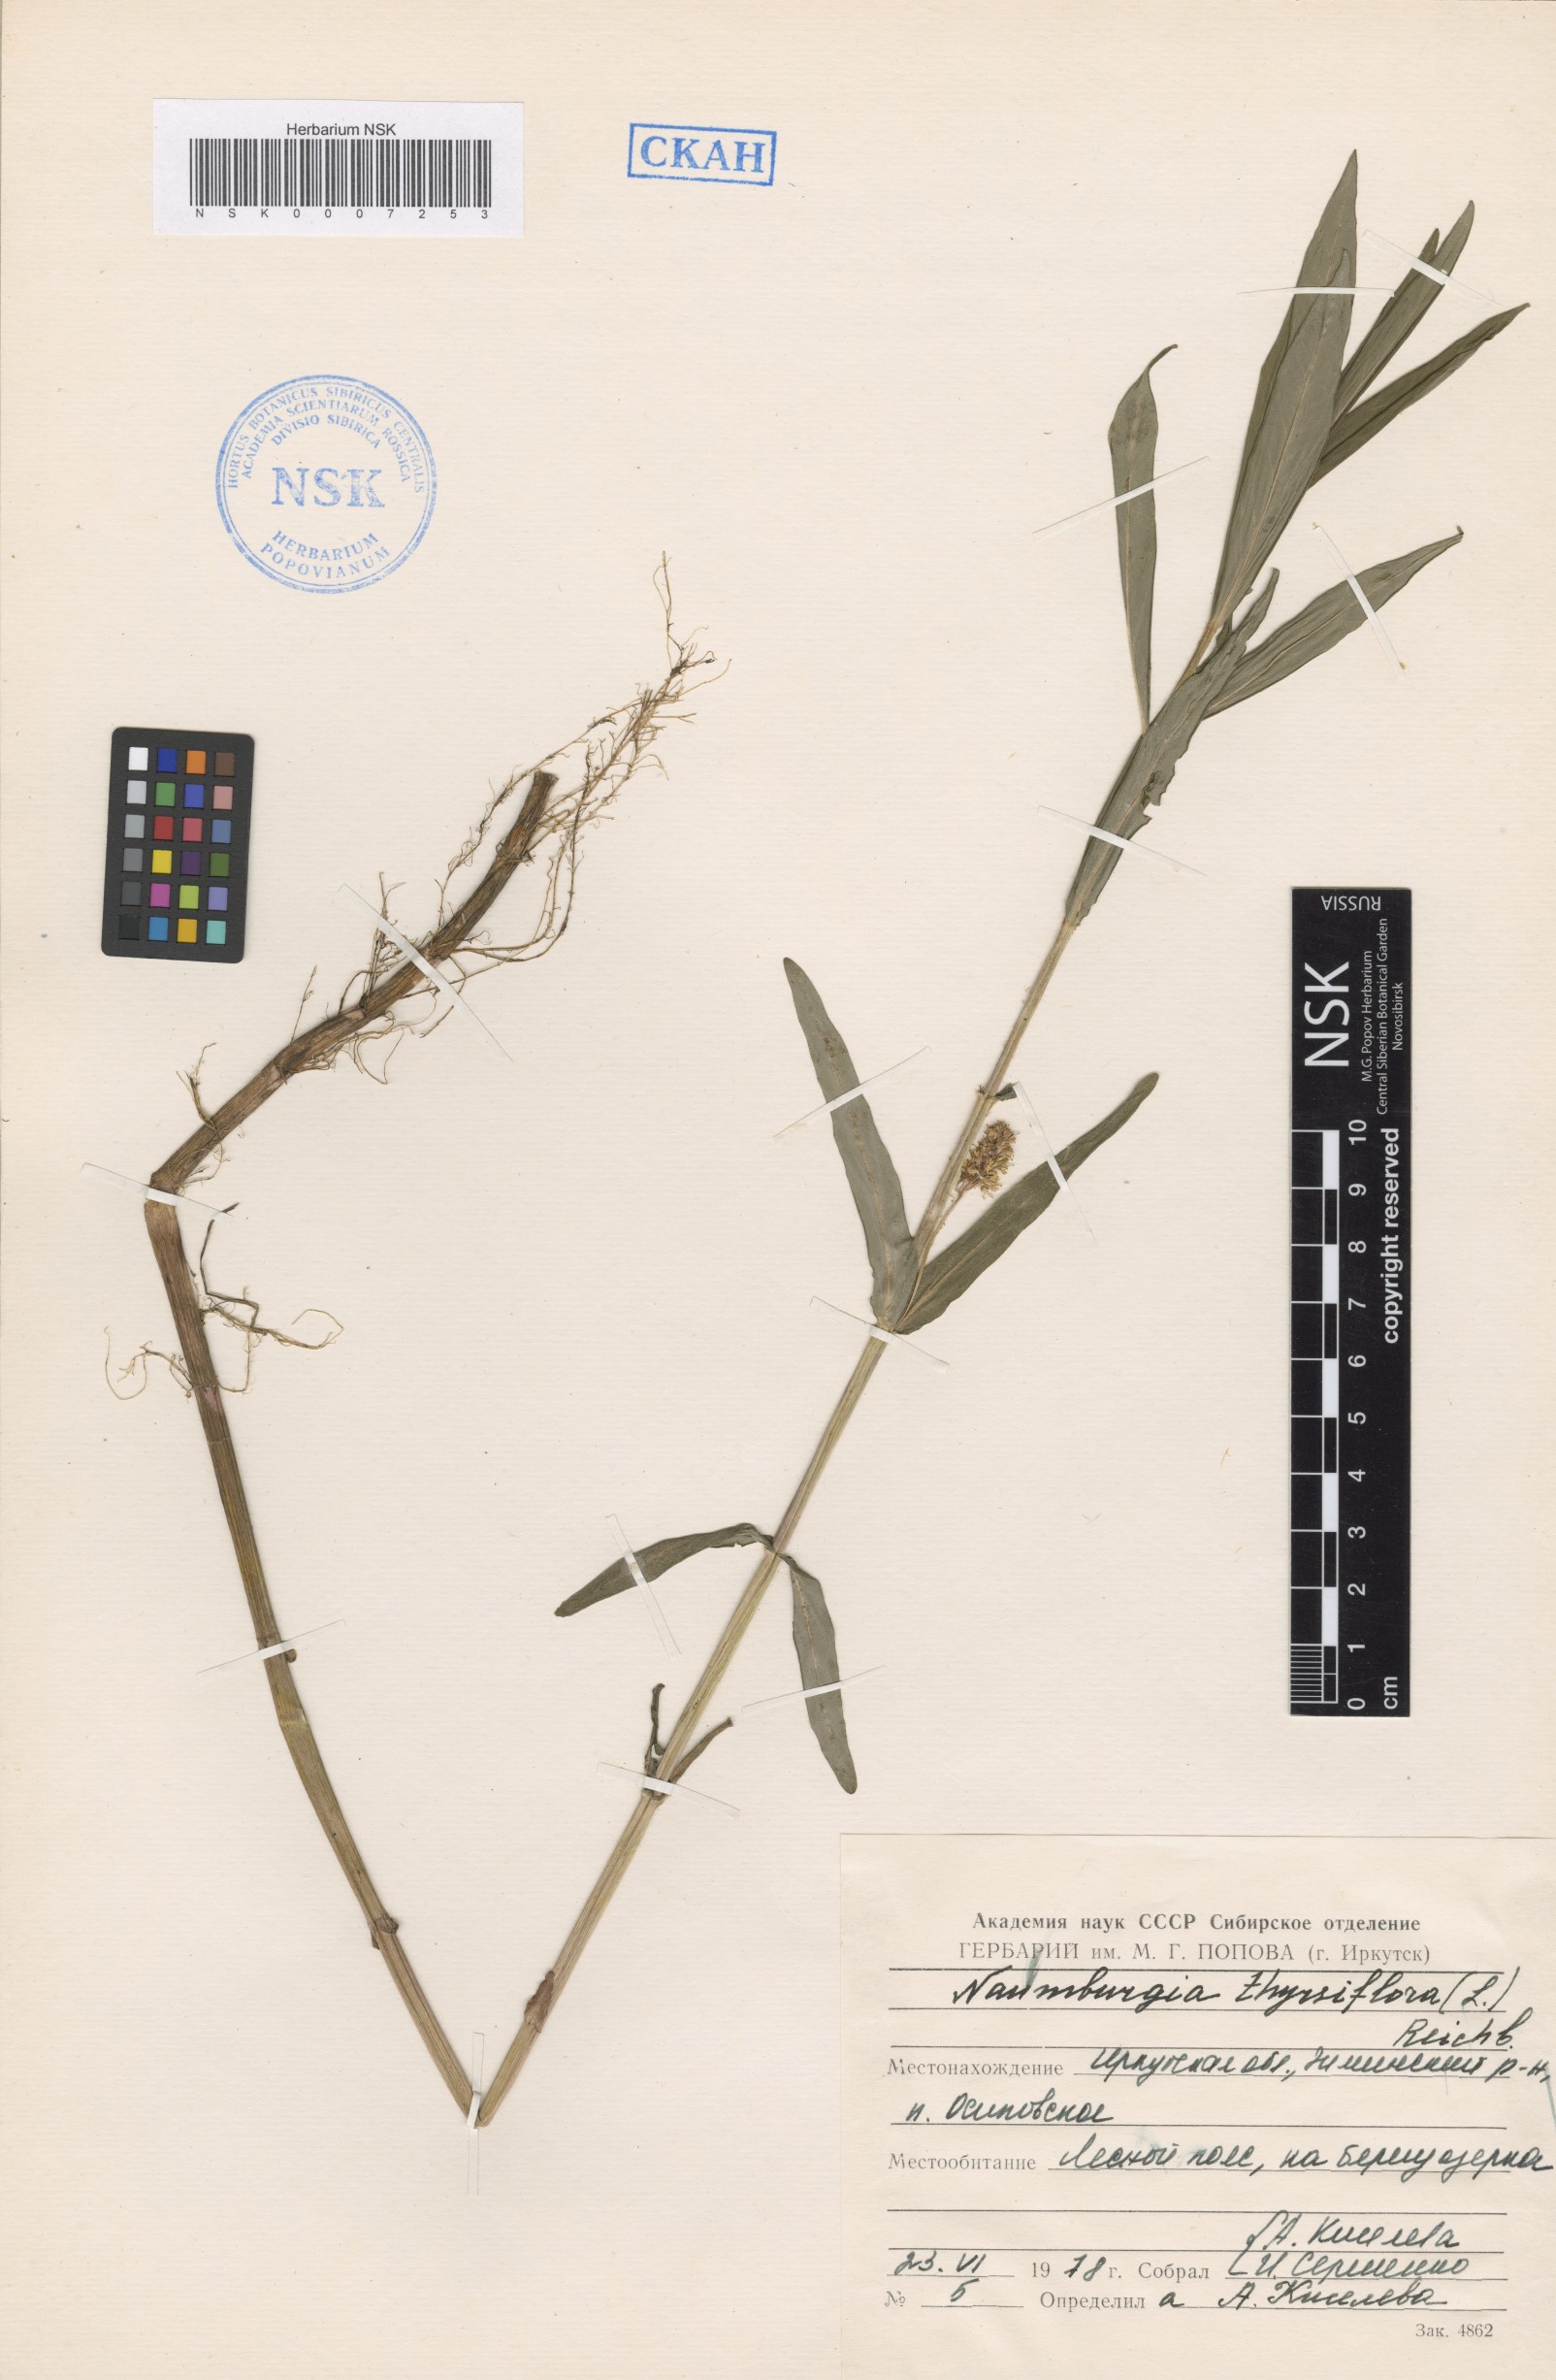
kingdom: Plantae
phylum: Tracheophyta
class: Magnoliopsida
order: Ericales
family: Primulaceae
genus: Lysimachia
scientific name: Lysimachia thyrsiflora
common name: Tufted loosestrife
